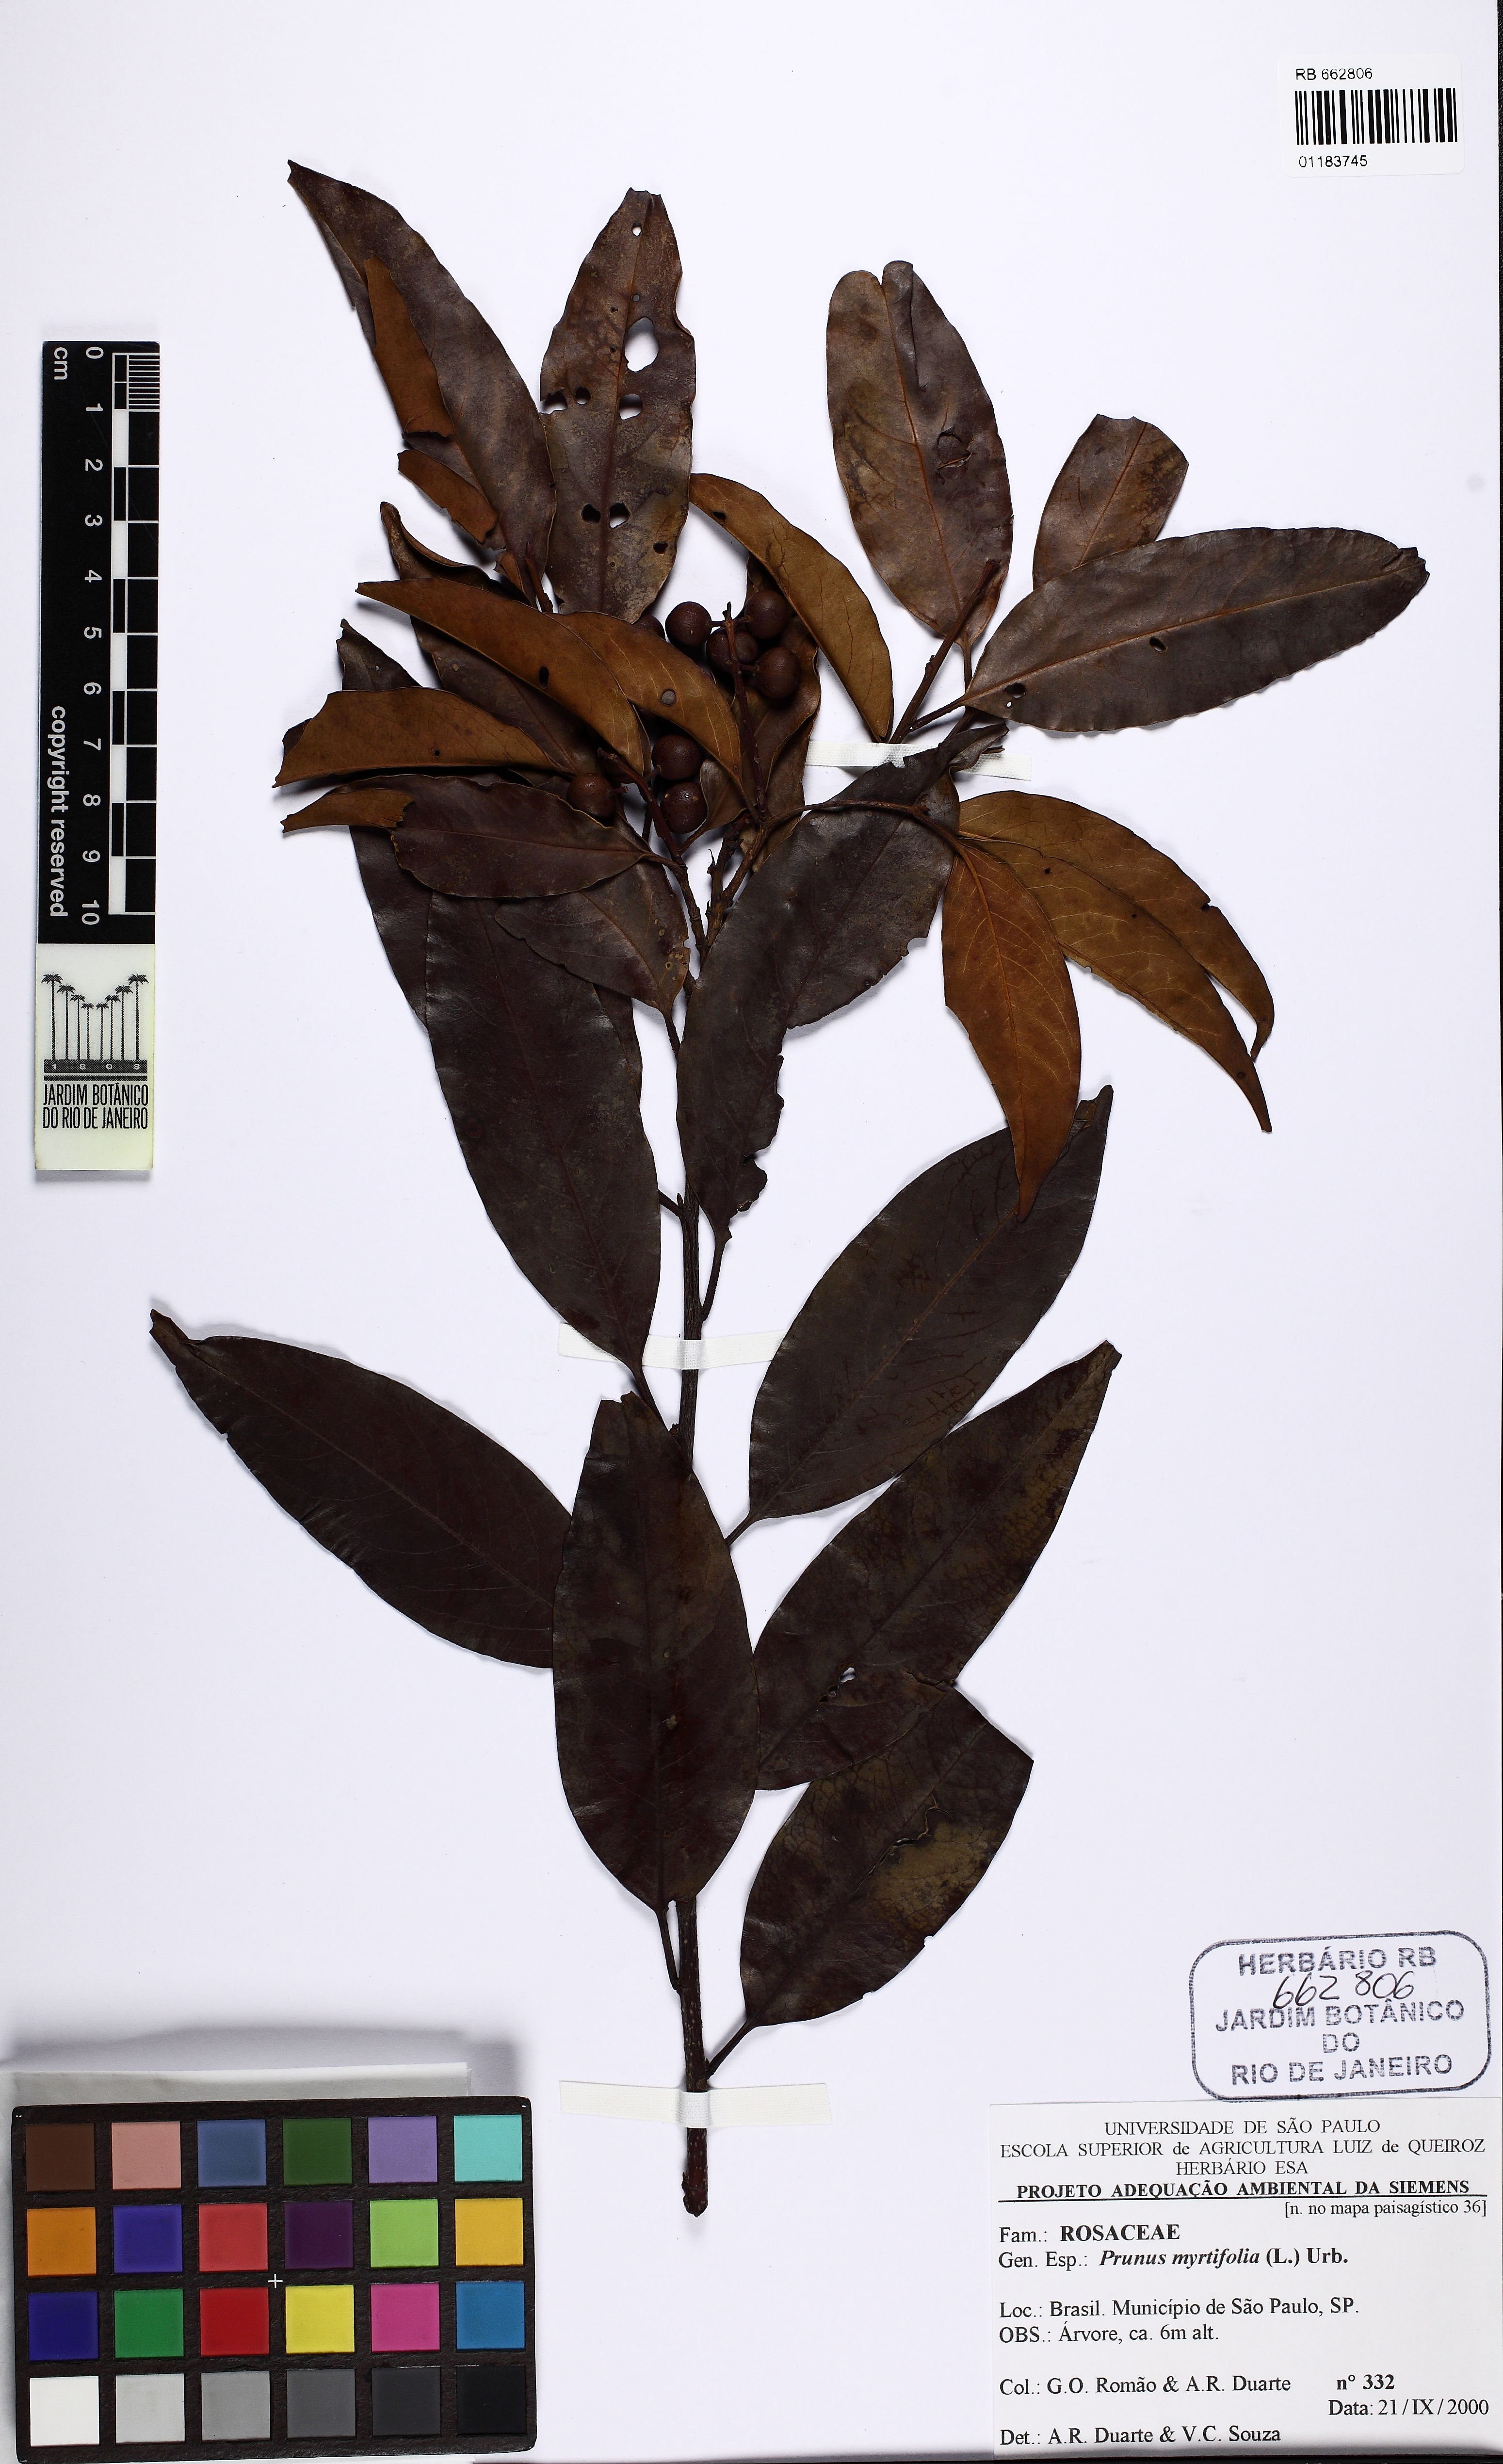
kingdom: Plantae
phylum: Tracheophyta
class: Magnoliopsida
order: Rosales
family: Rosaceae
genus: Prunus
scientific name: Prunus myrtifolia
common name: West indies cherry
